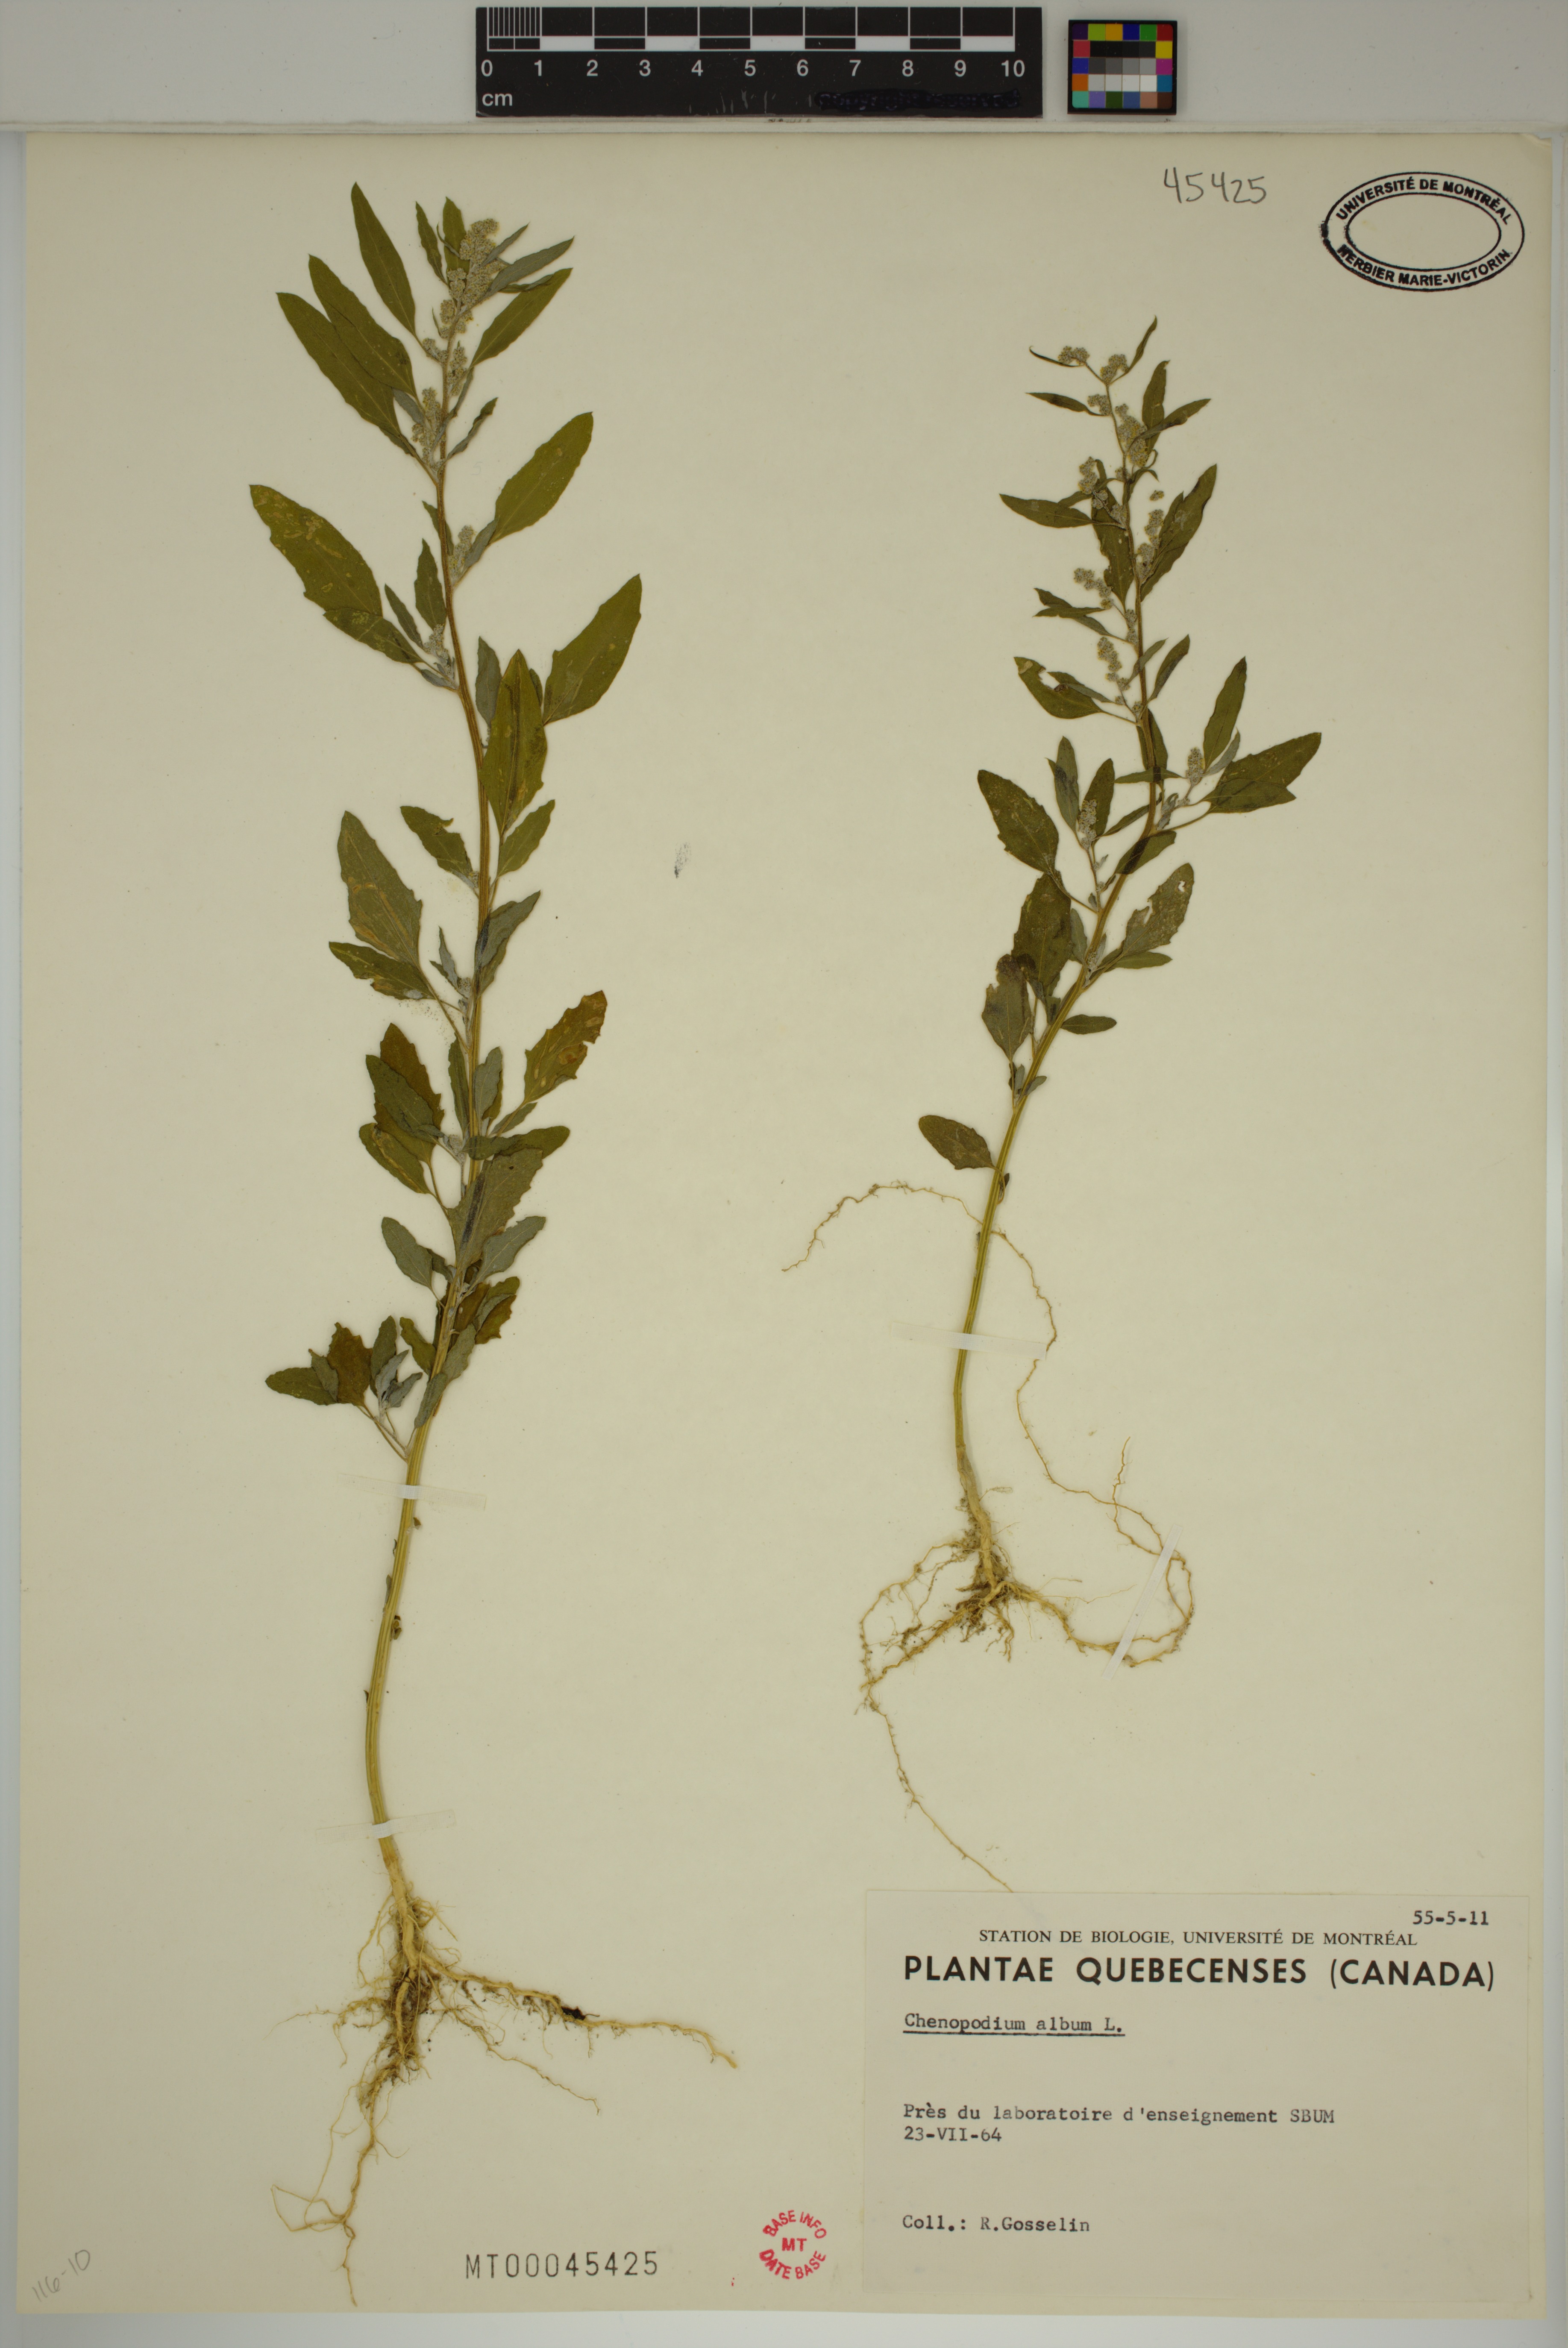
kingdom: Plantae
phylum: Tracheophyta
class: Magnoliopsida
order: Caryophyllales
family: Amaranthaceae
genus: Chenopodium
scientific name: Chenopodium album
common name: Fat-hen
